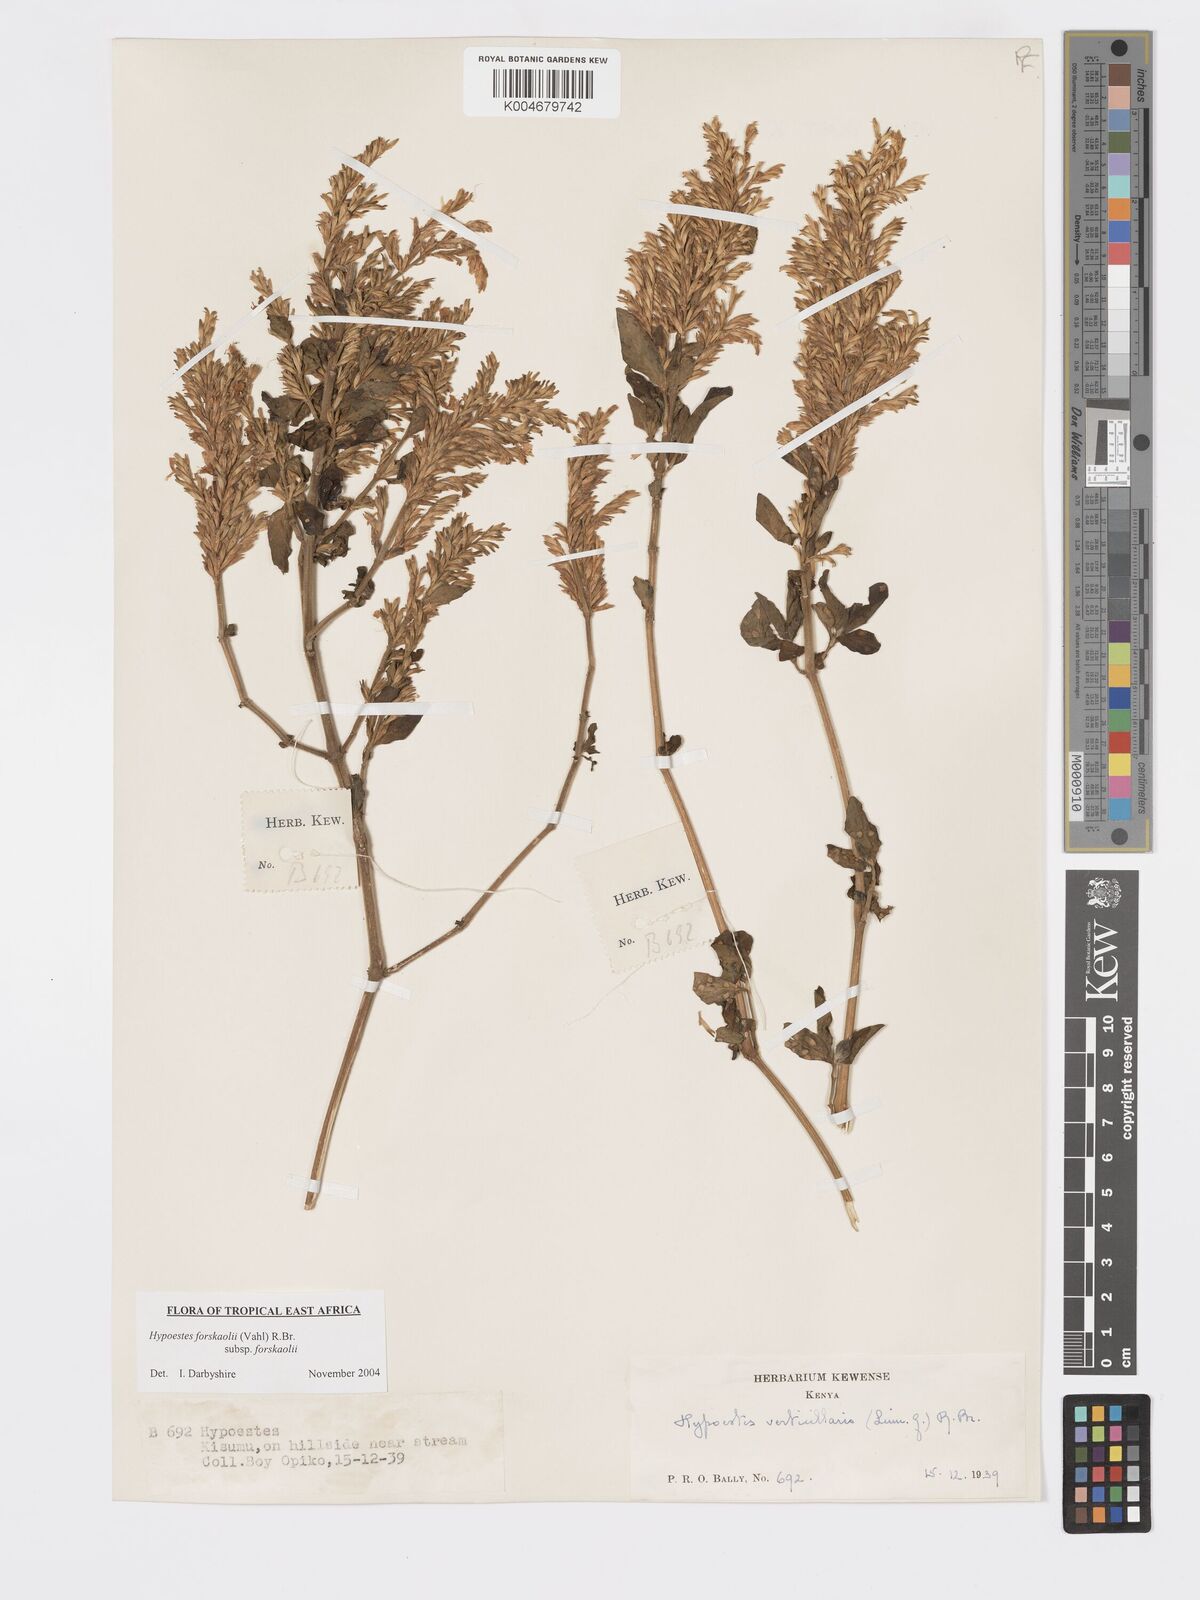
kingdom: Plantae
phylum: Tracheophyta
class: Magnoliopsida
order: Lamiales
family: Acanthaceae
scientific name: Acanthaceae
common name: Acanthaceae
